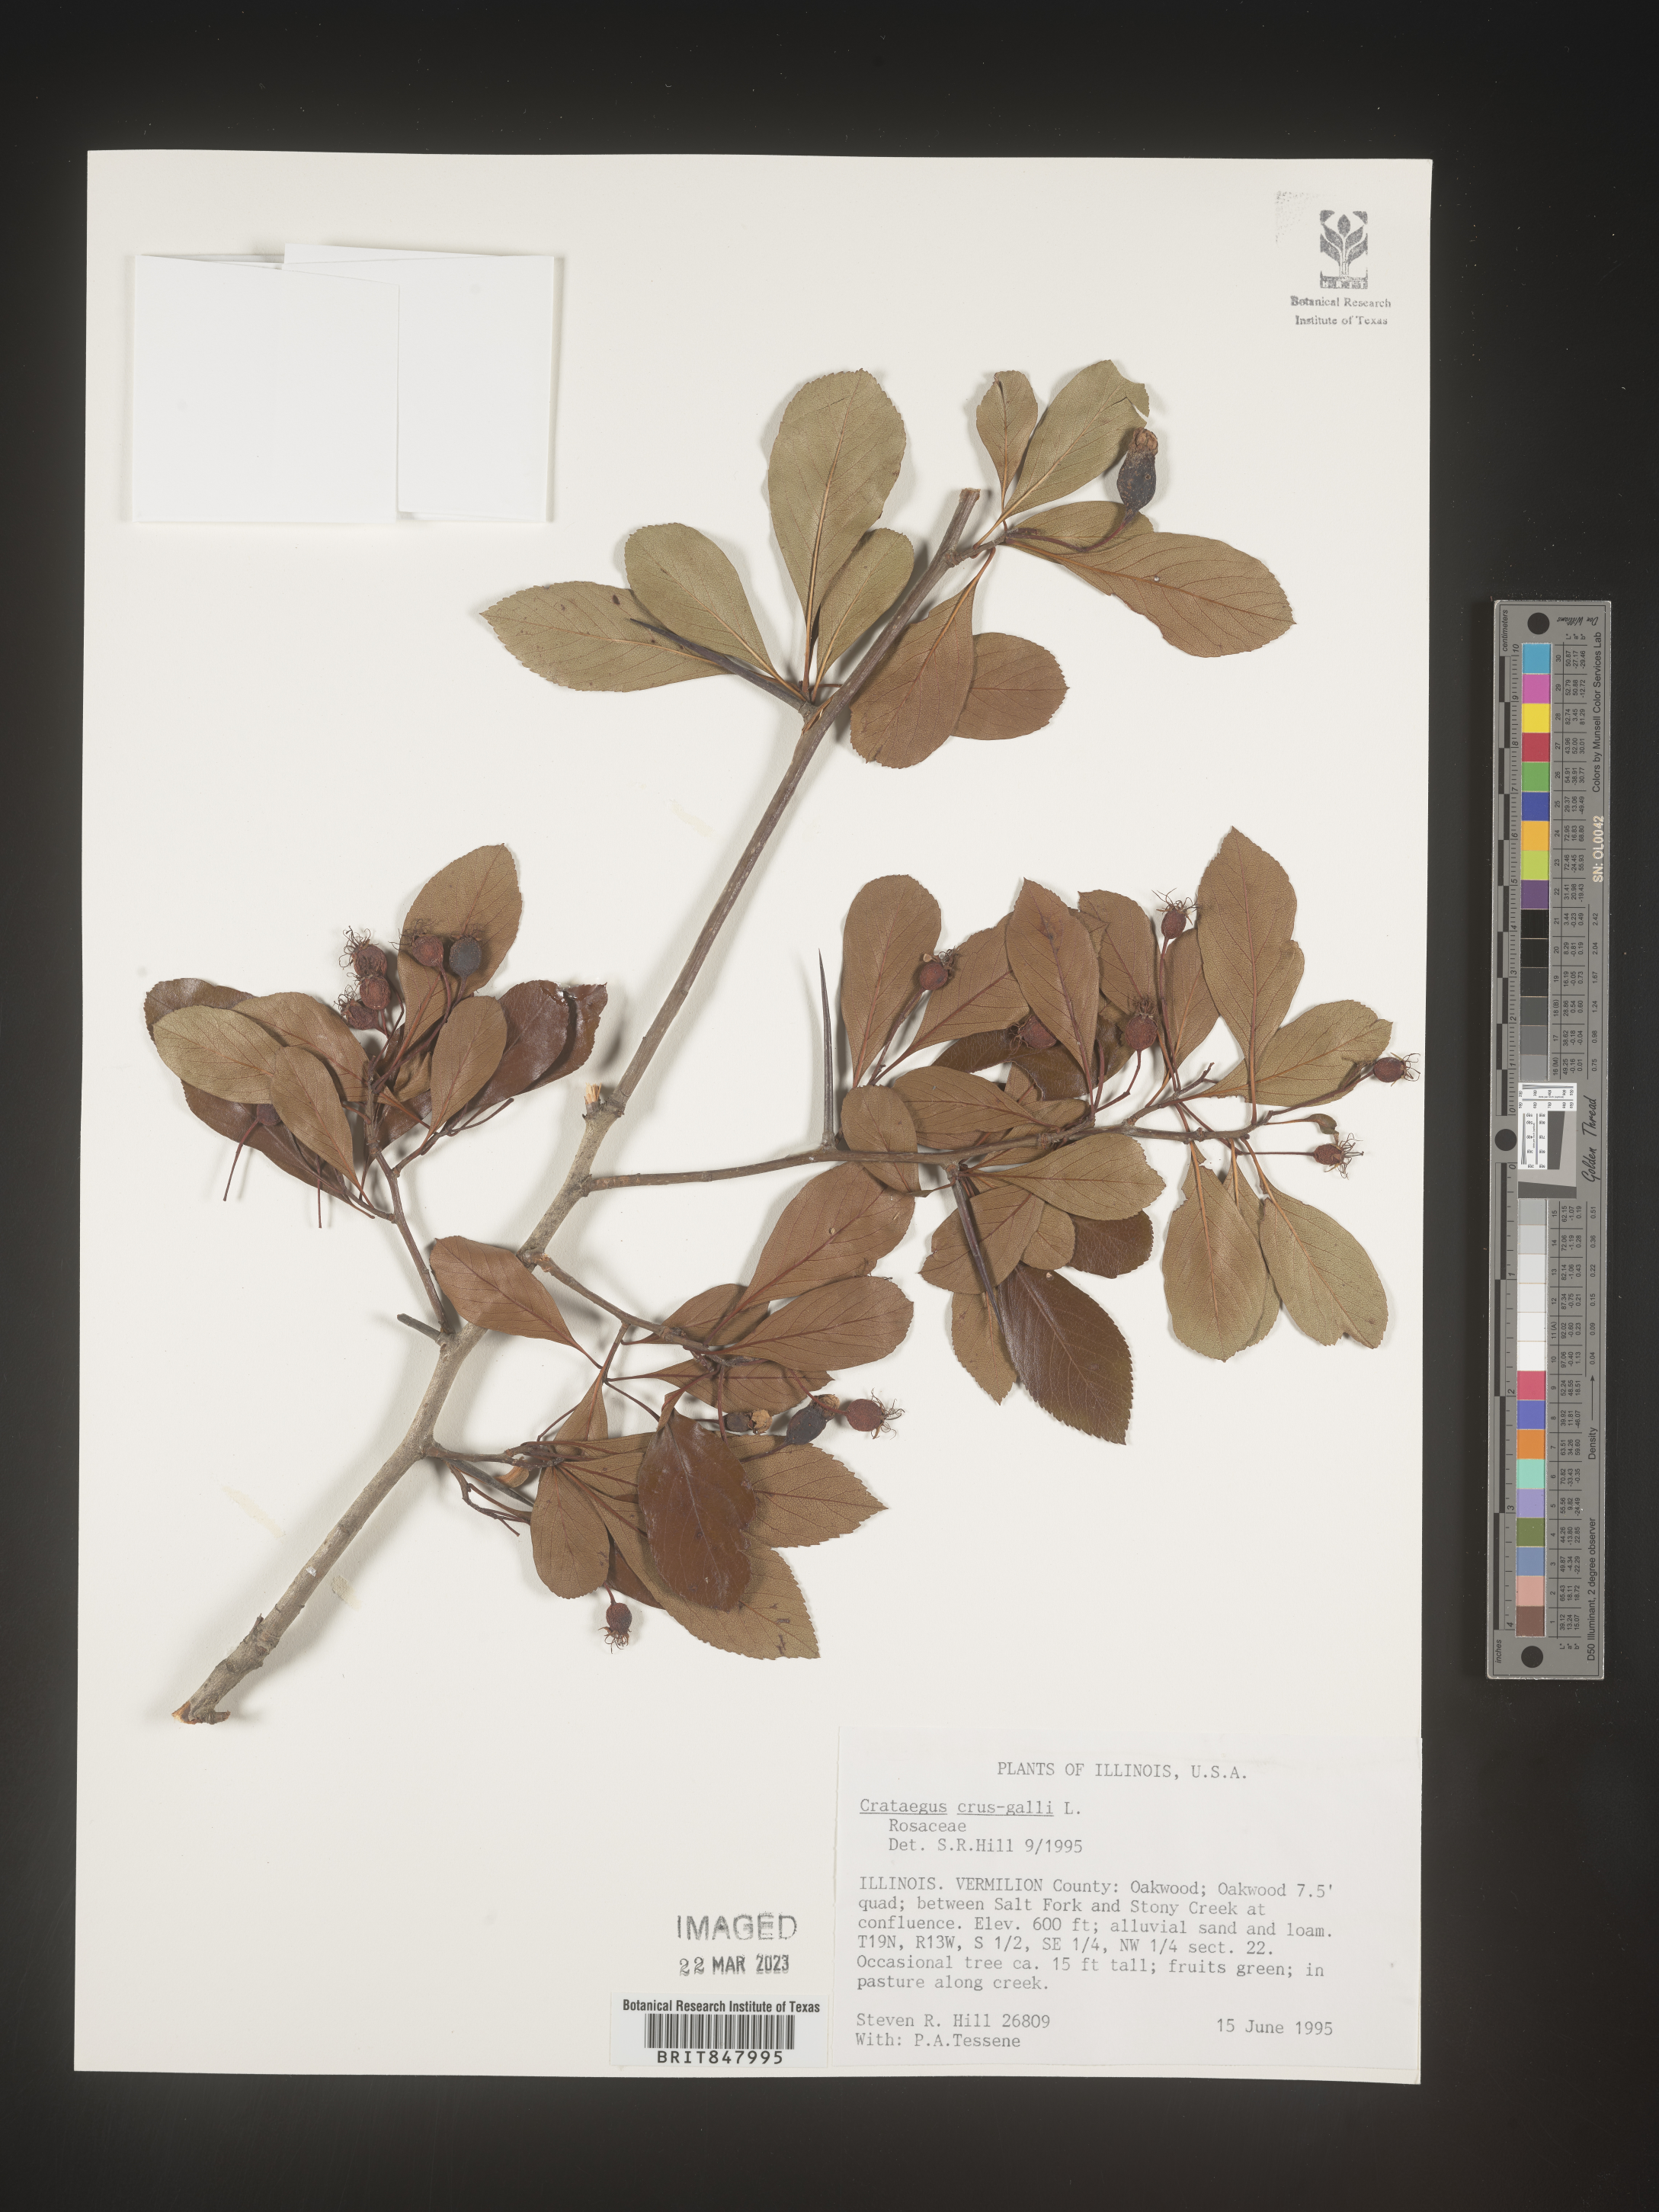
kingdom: Plantae
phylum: Tracheophyta
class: Magnoliopsida
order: Rosales
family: Rosaceae
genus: Crataegus
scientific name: Crataegus crus-galli
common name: Cockspurthorn
